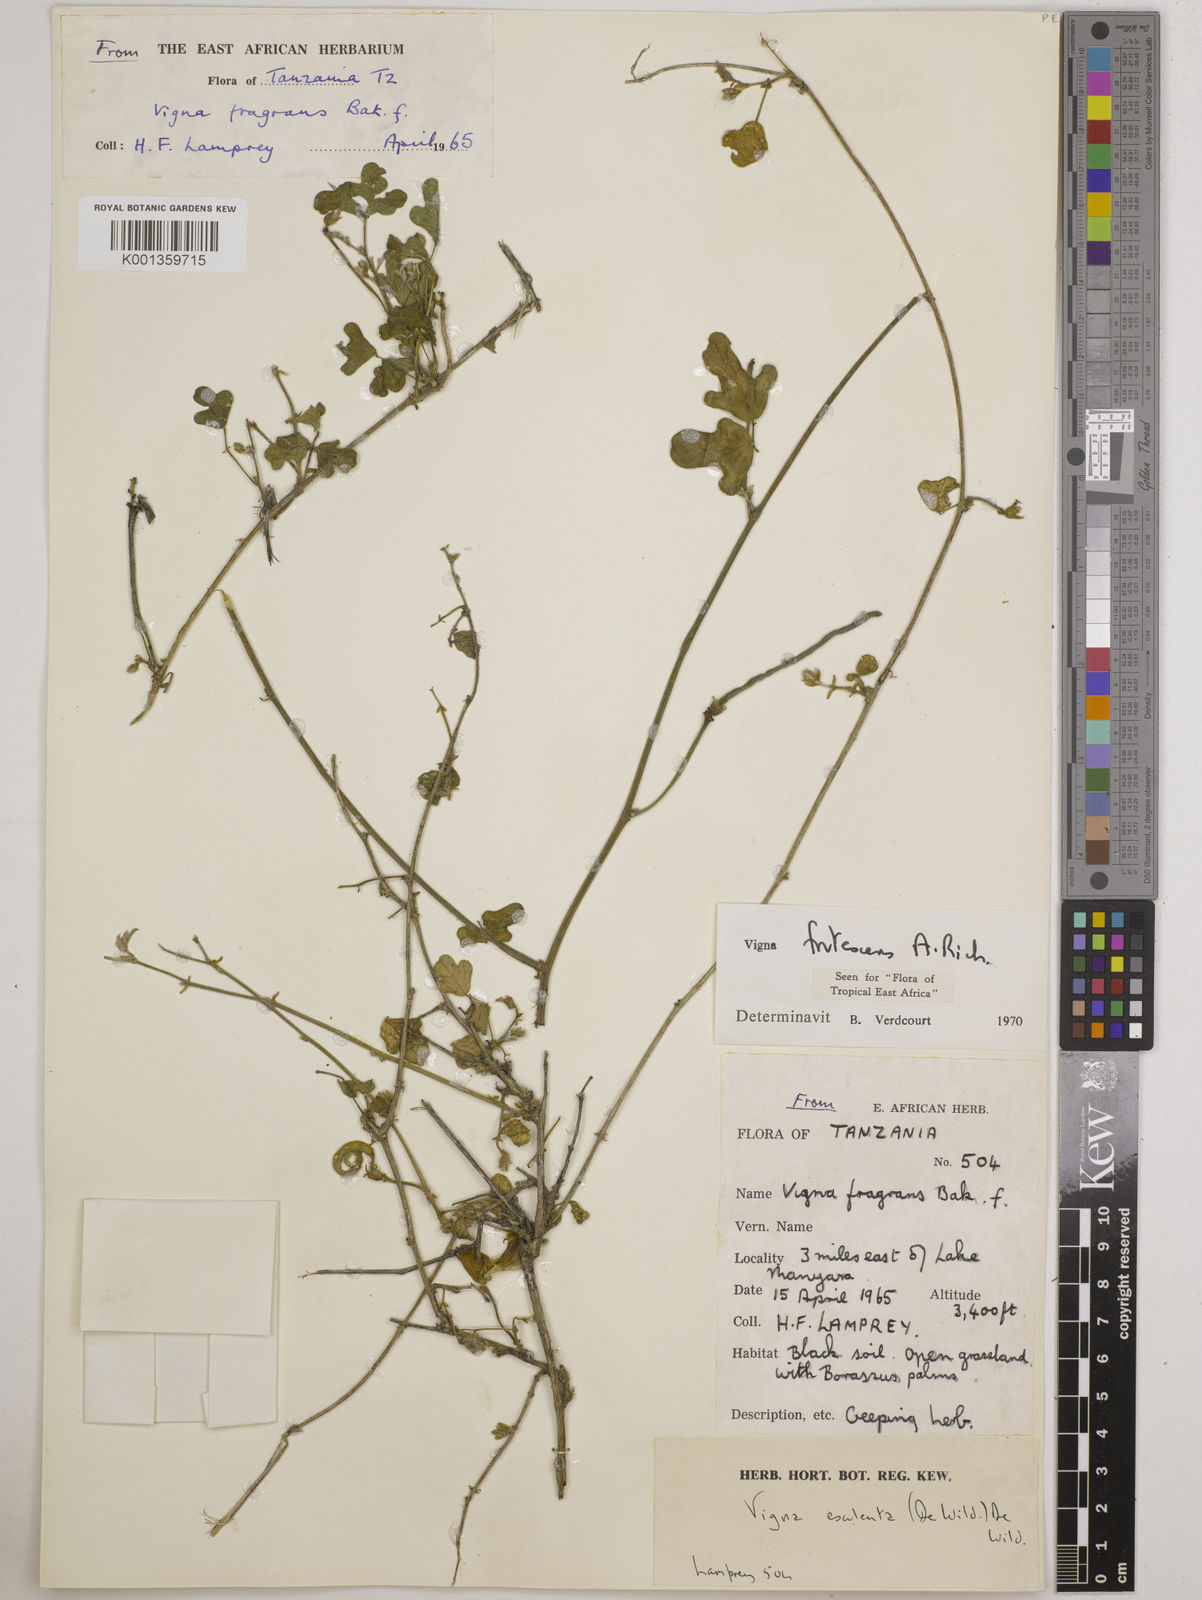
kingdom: Plantae
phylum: Tracheophyta
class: Magnoliopsida
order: Fabales
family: Fabaceae
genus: Vigna
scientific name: Vigna frutescens
